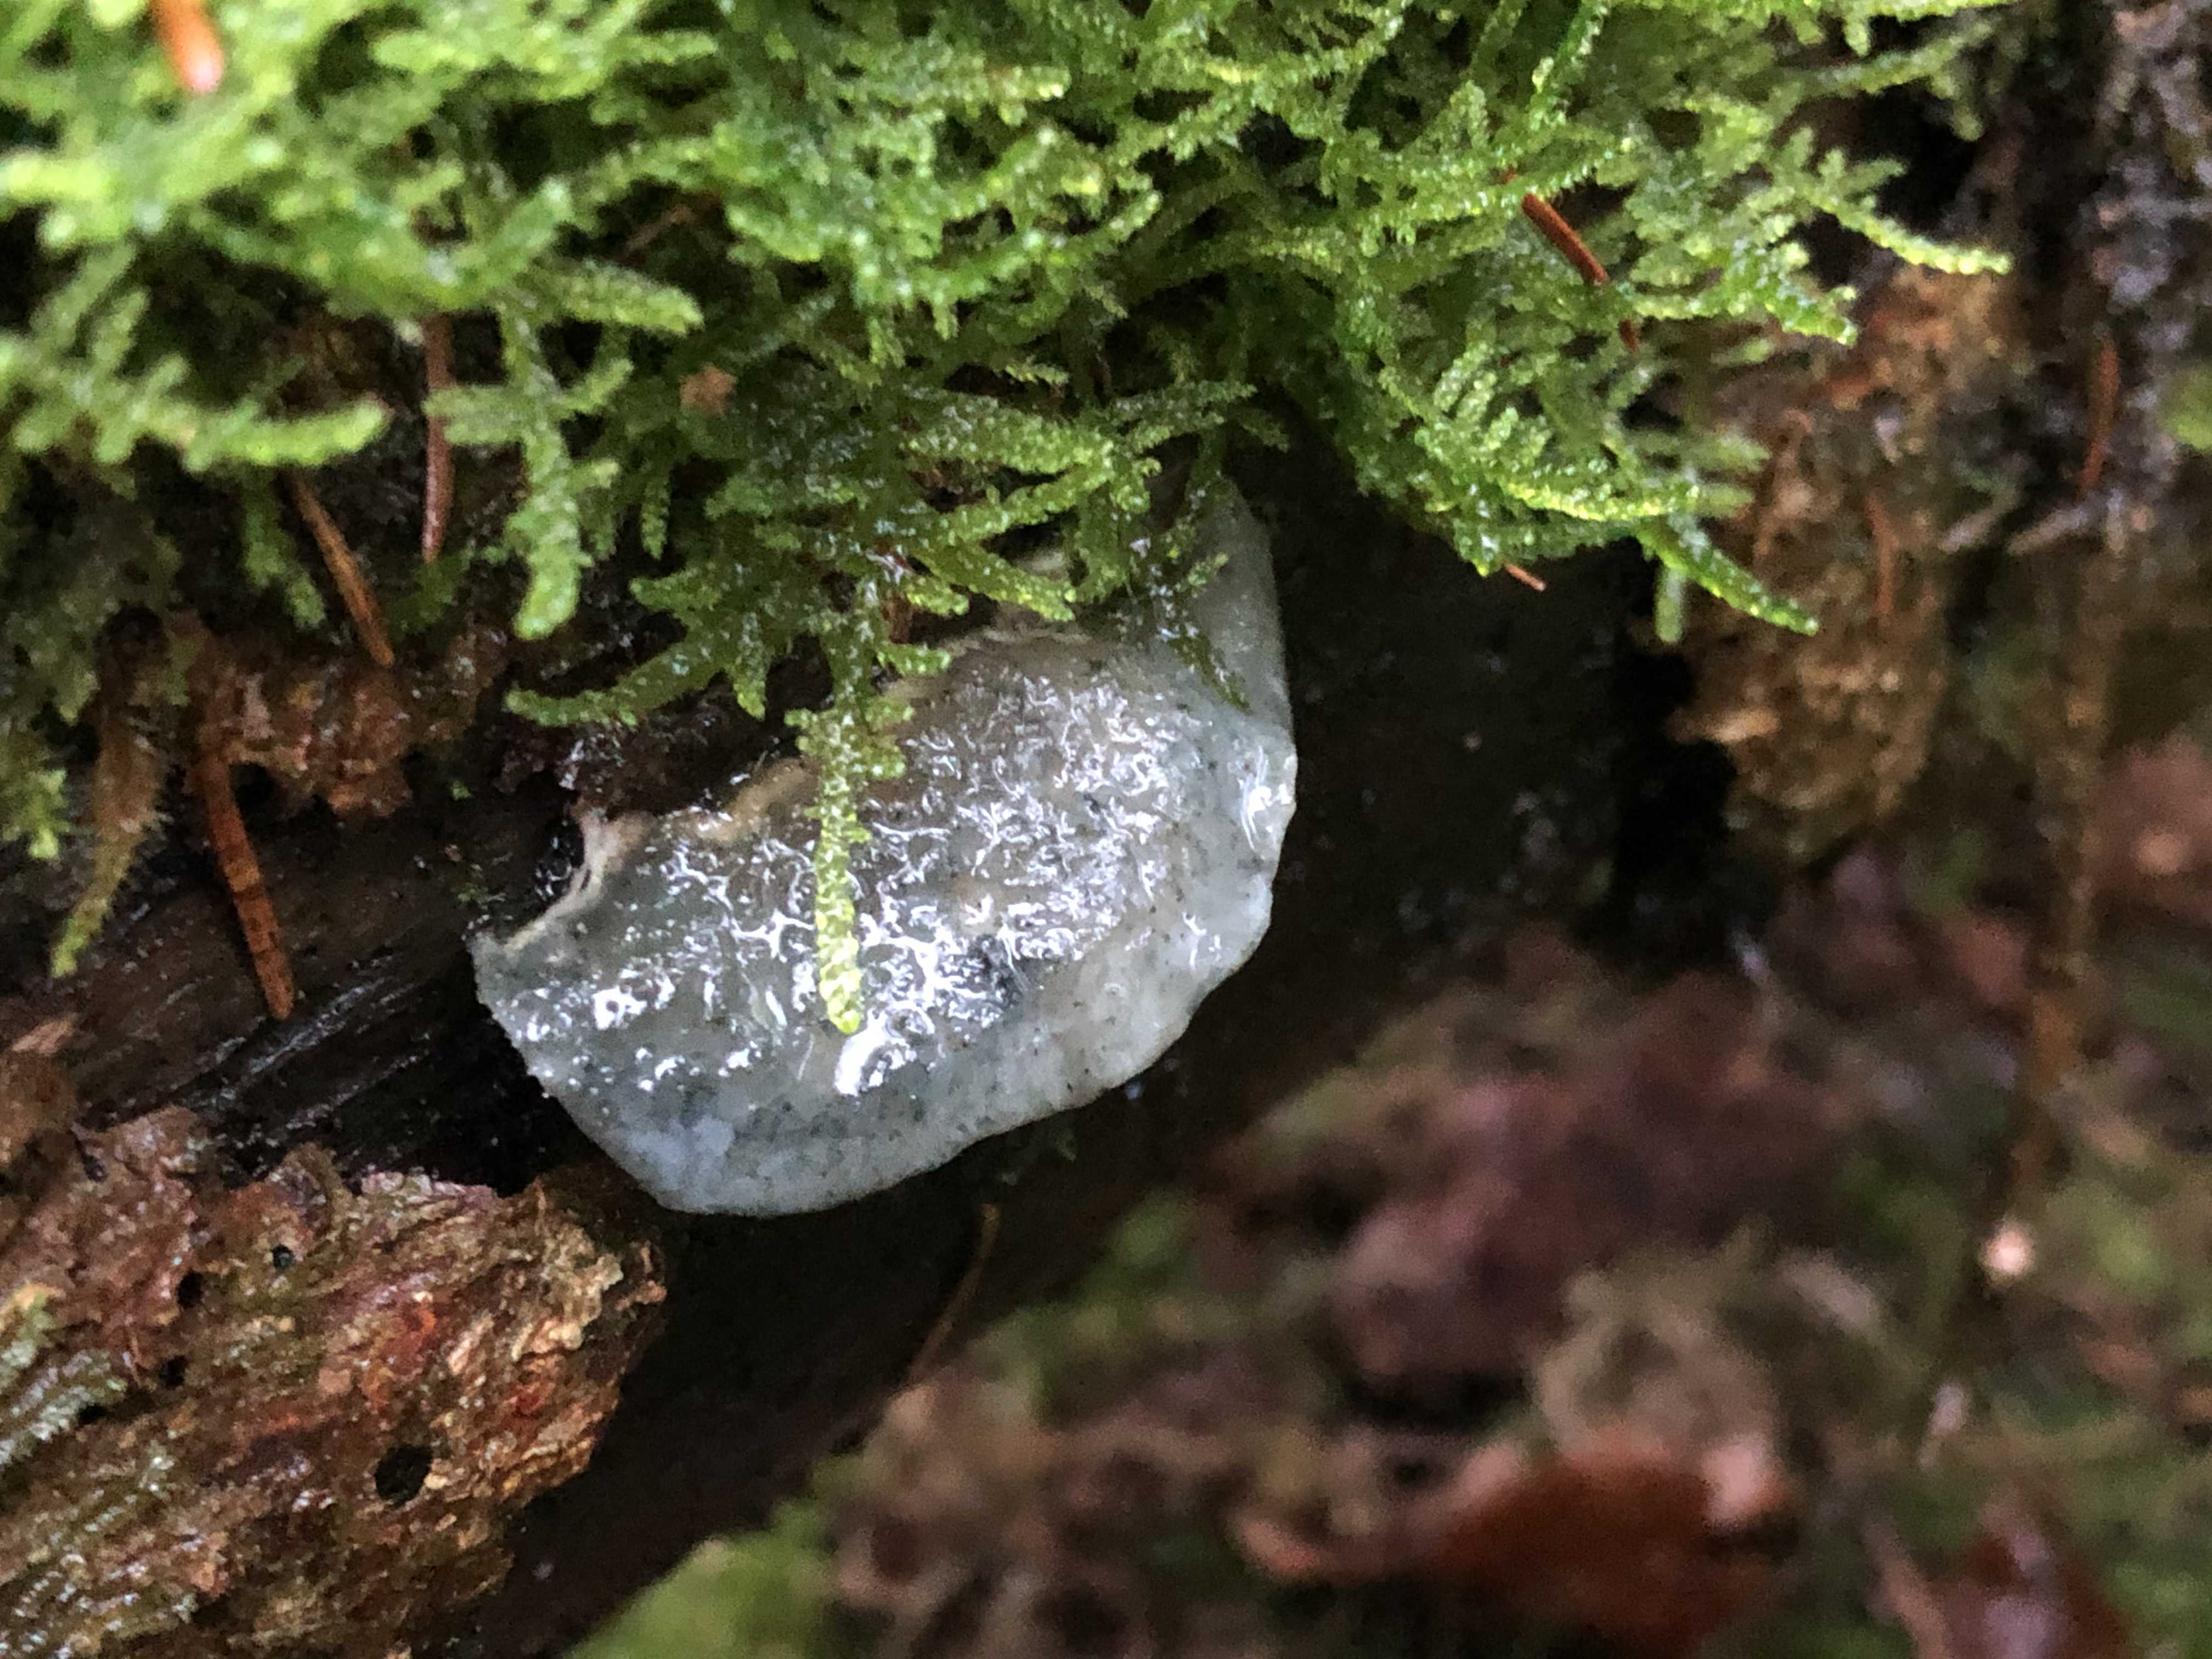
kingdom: Fungi
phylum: Basidiomycota
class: Agaricomycetes
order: Polyporales
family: Polyporaceae
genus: Cyanosporus
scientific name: Cyanosporus caesius
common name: blålig kødporesvamp
